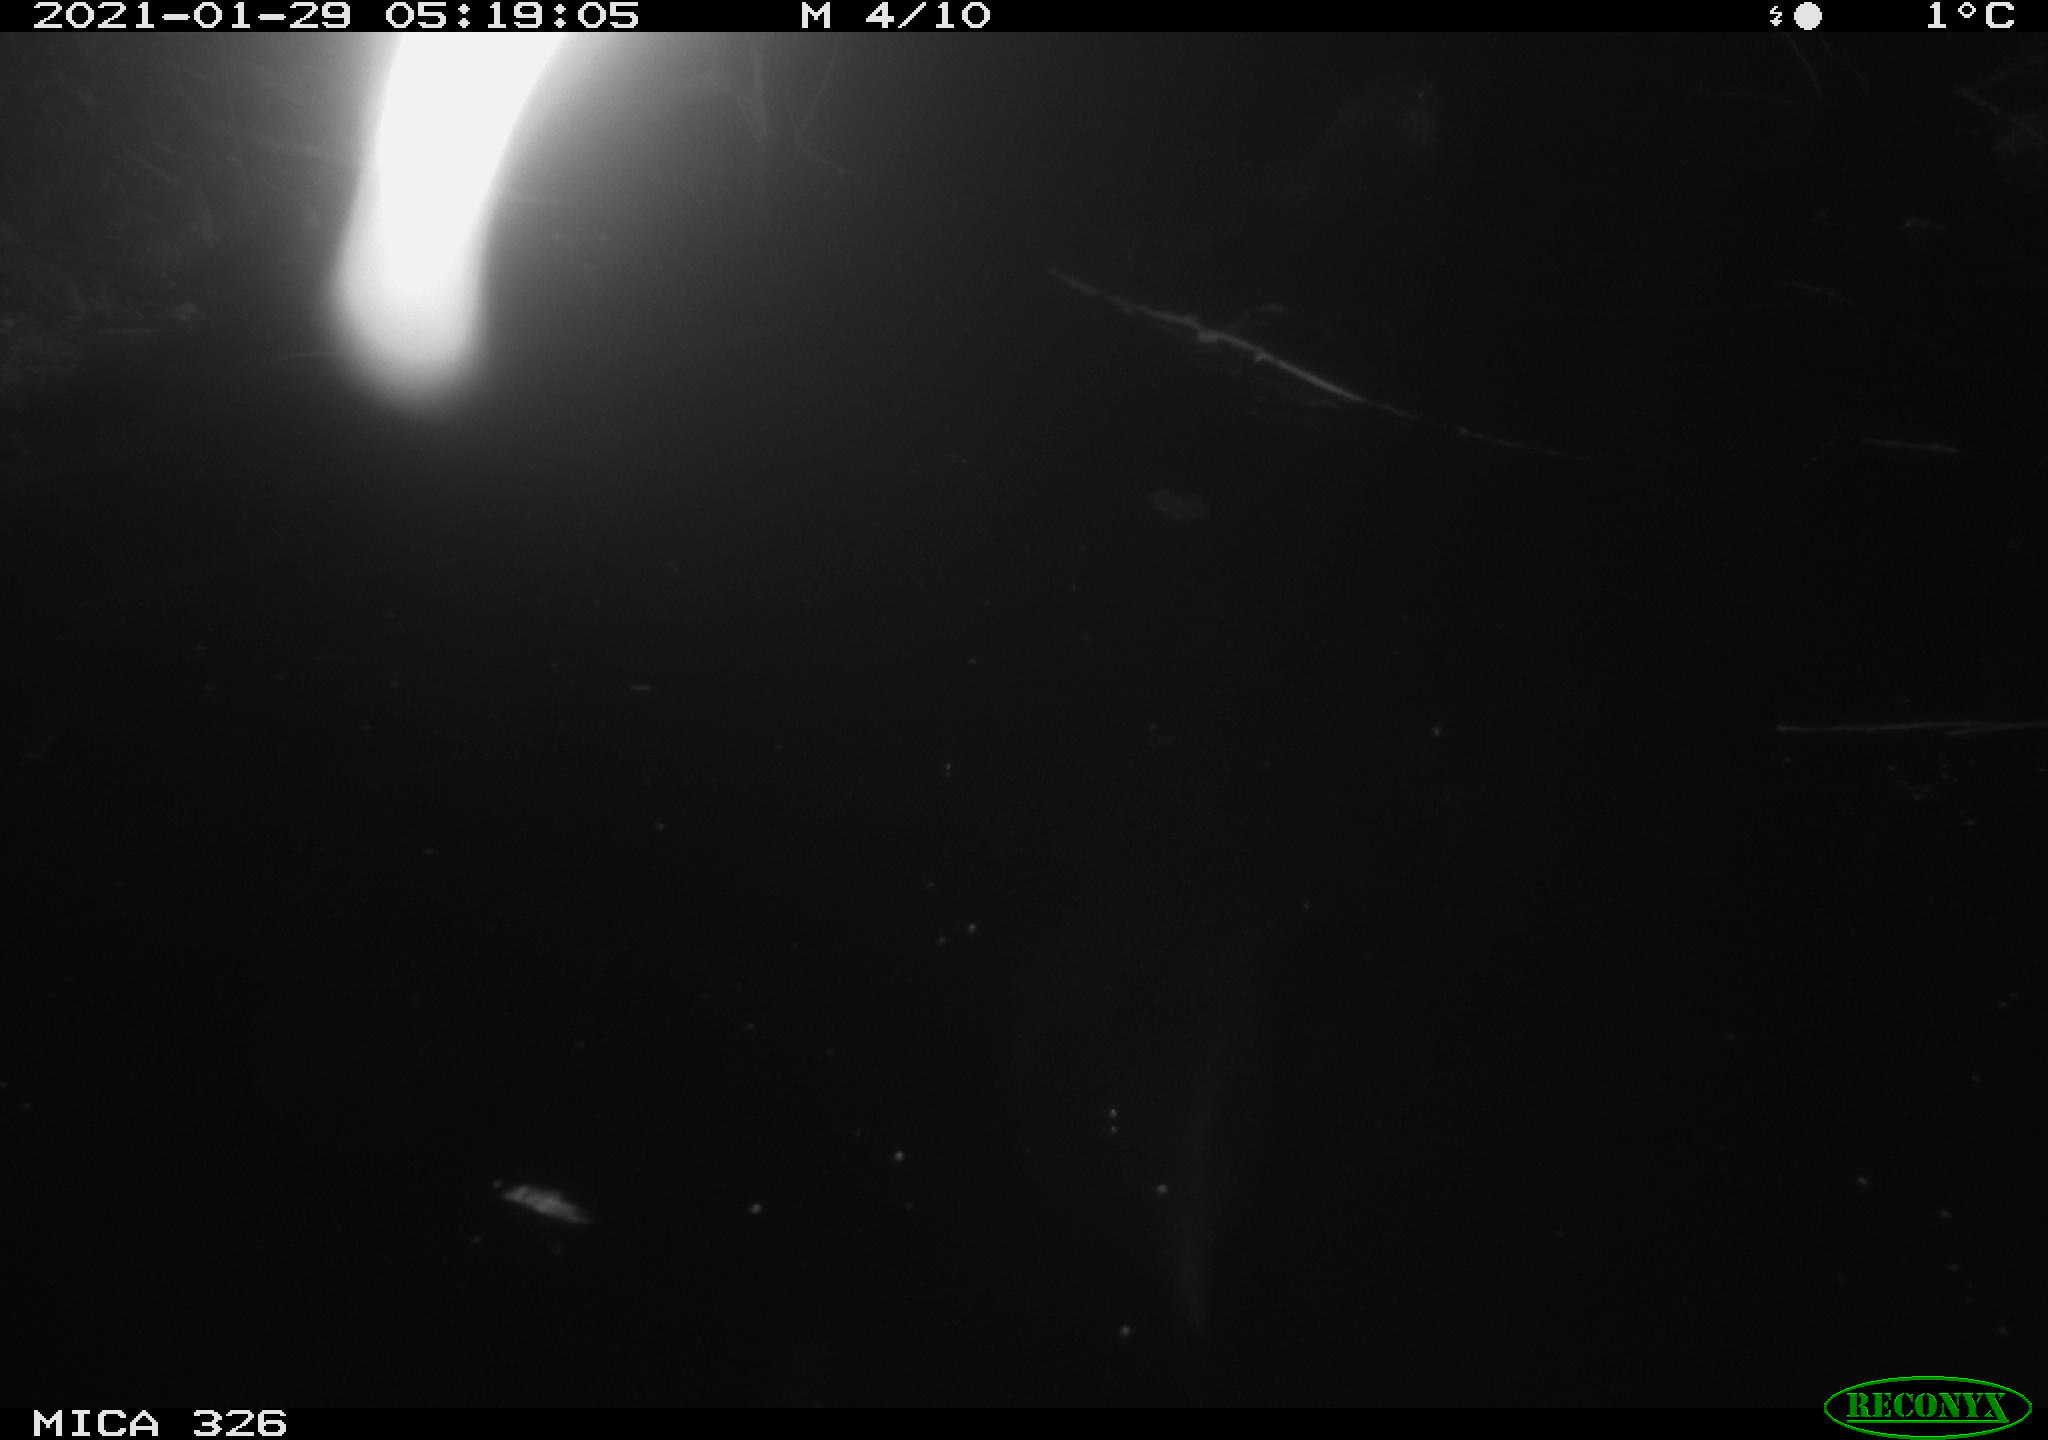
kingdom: Animalia
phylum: Chordata
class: Mammalia
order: Rodentia
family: Myocastoridae
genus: Myocastor
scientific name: Myocastor coypus
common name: Coypu
